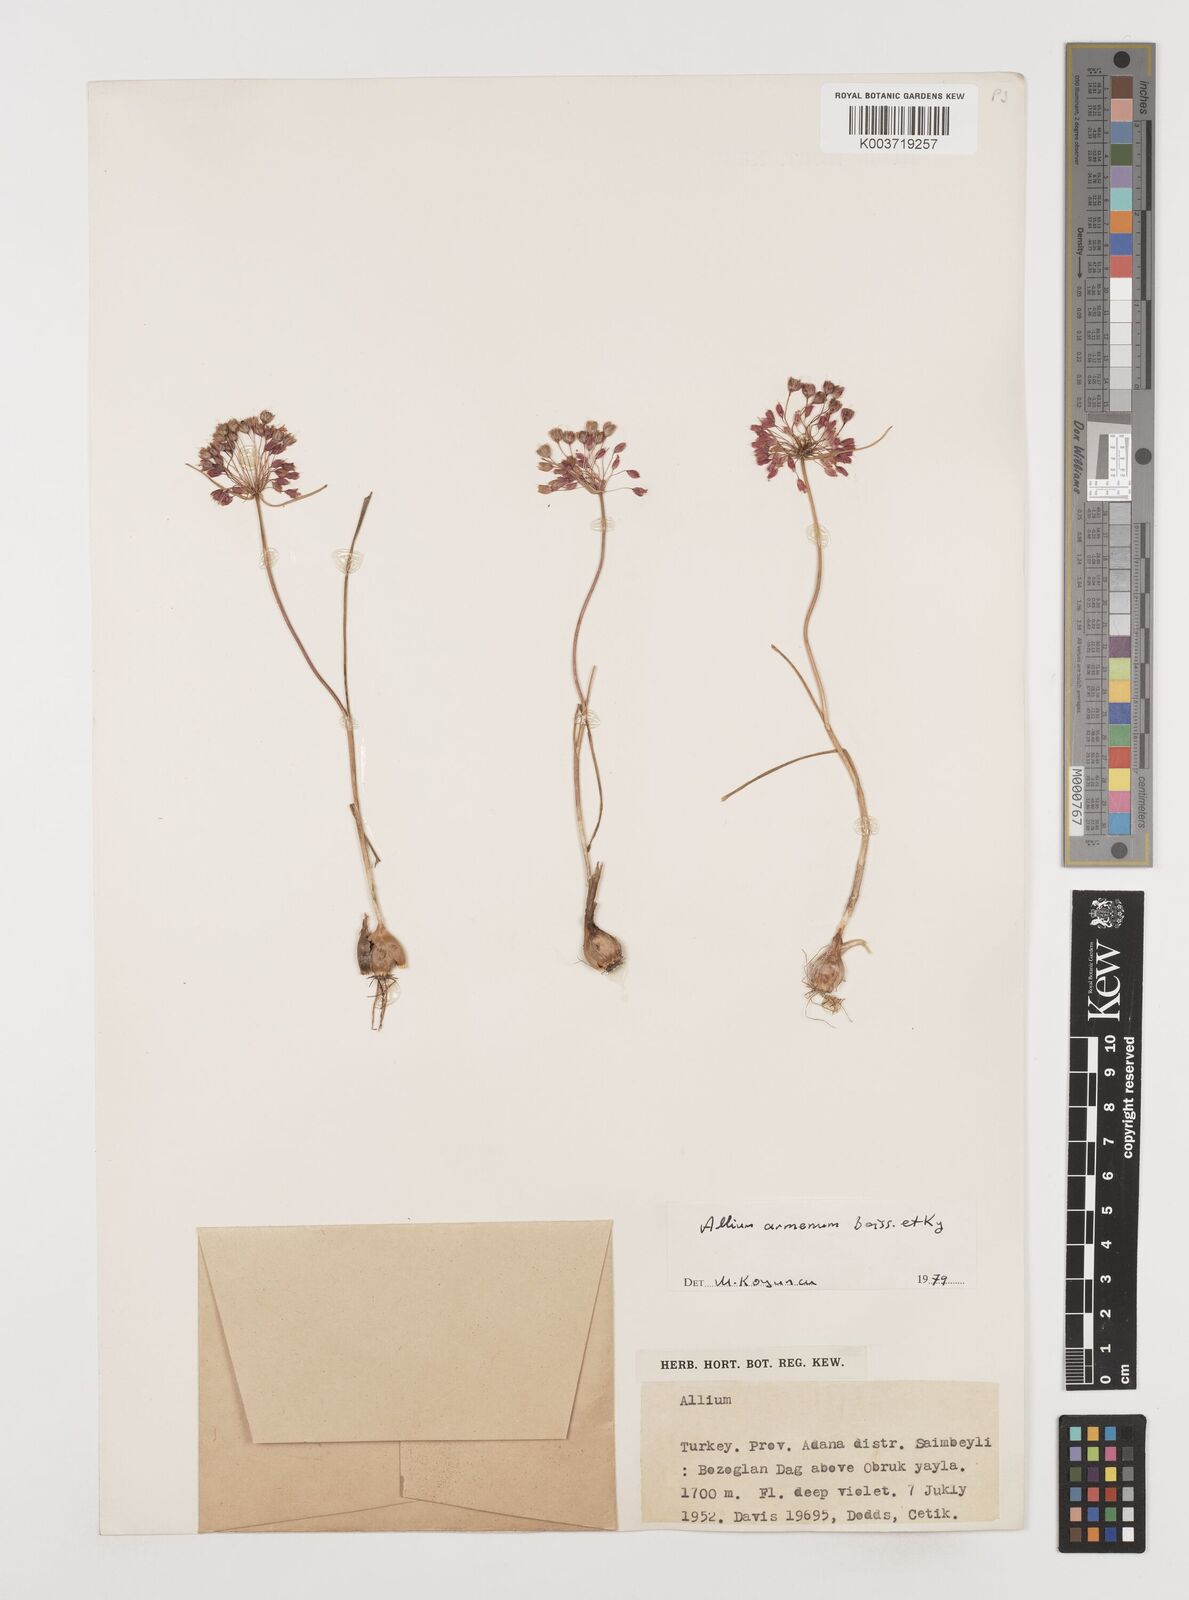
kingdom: Plantae
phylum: Tracheophyta
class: Liliopsida
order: Asparagales
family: Amaryllidaceae
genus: Allium
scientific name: Allium armenum
